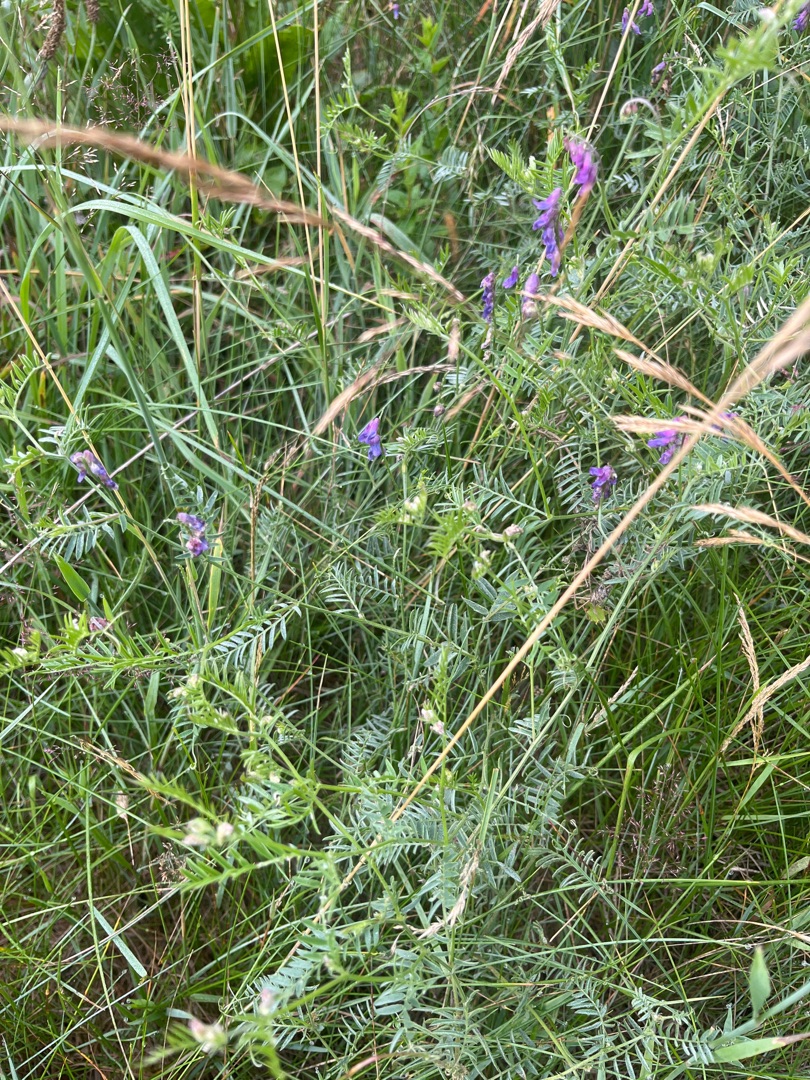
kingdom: Plantae
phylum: Tracheophyta
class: Magnoliopsida
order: Fabales
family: Fabaceae
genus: Vicia
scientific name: Vicia cracca
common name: Muse-vikke
